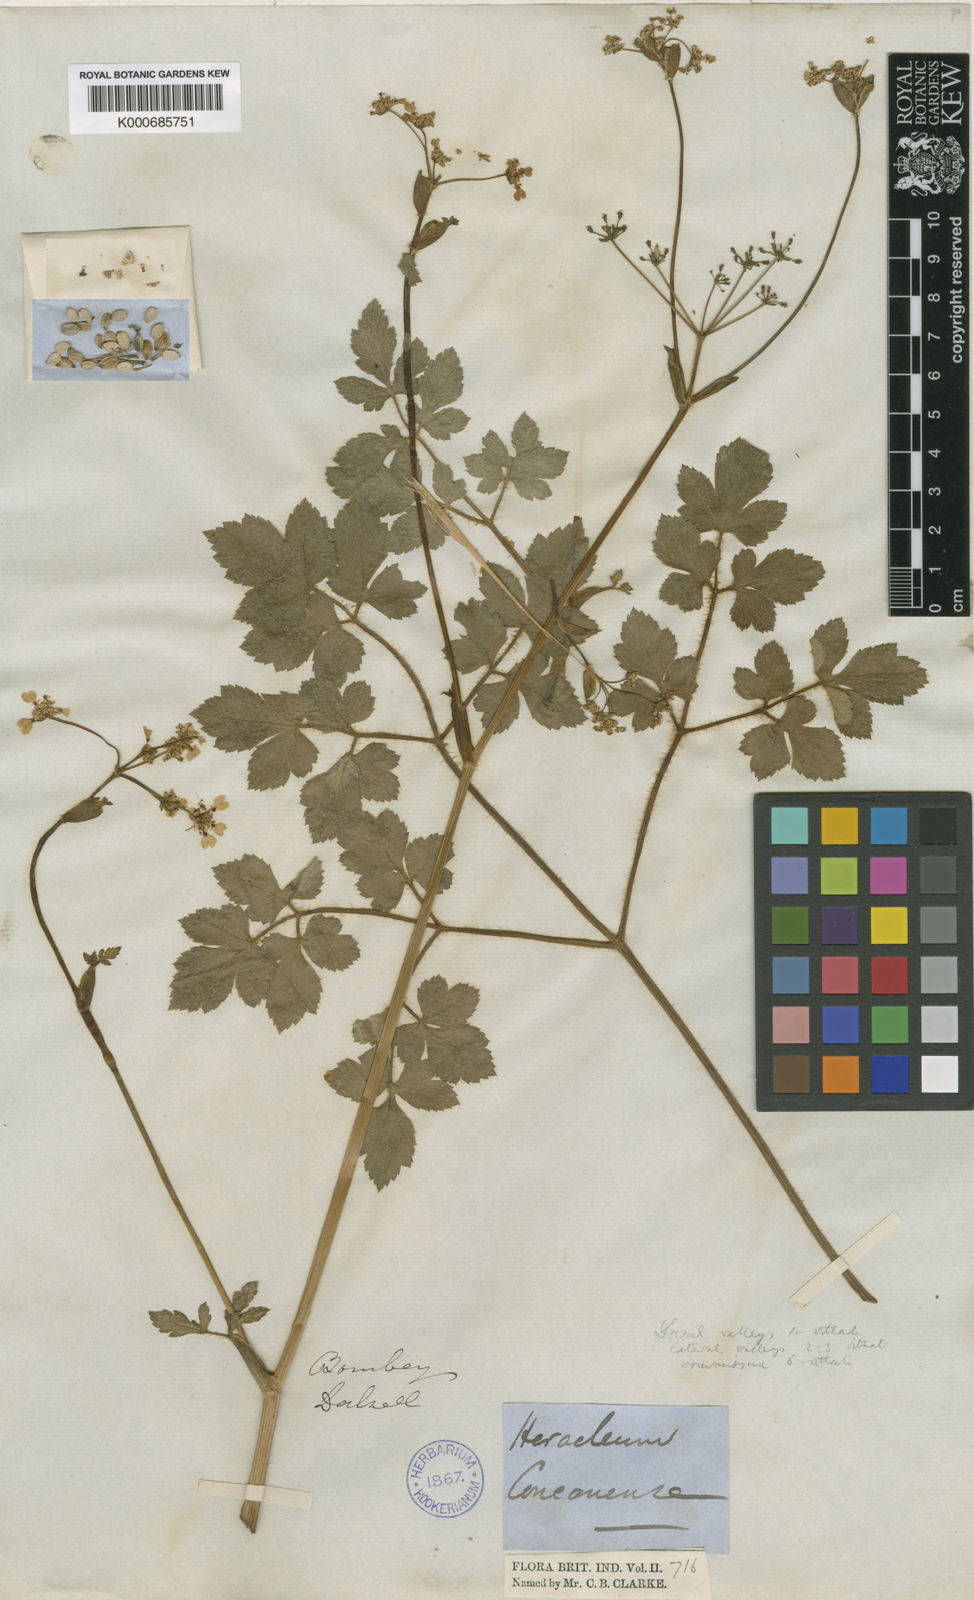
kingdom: Plantae
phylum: Tracheophyta
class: Magnoliopsida
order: Apiales
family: Apiaceae
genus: Pinda
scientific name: Pinda concanensis
